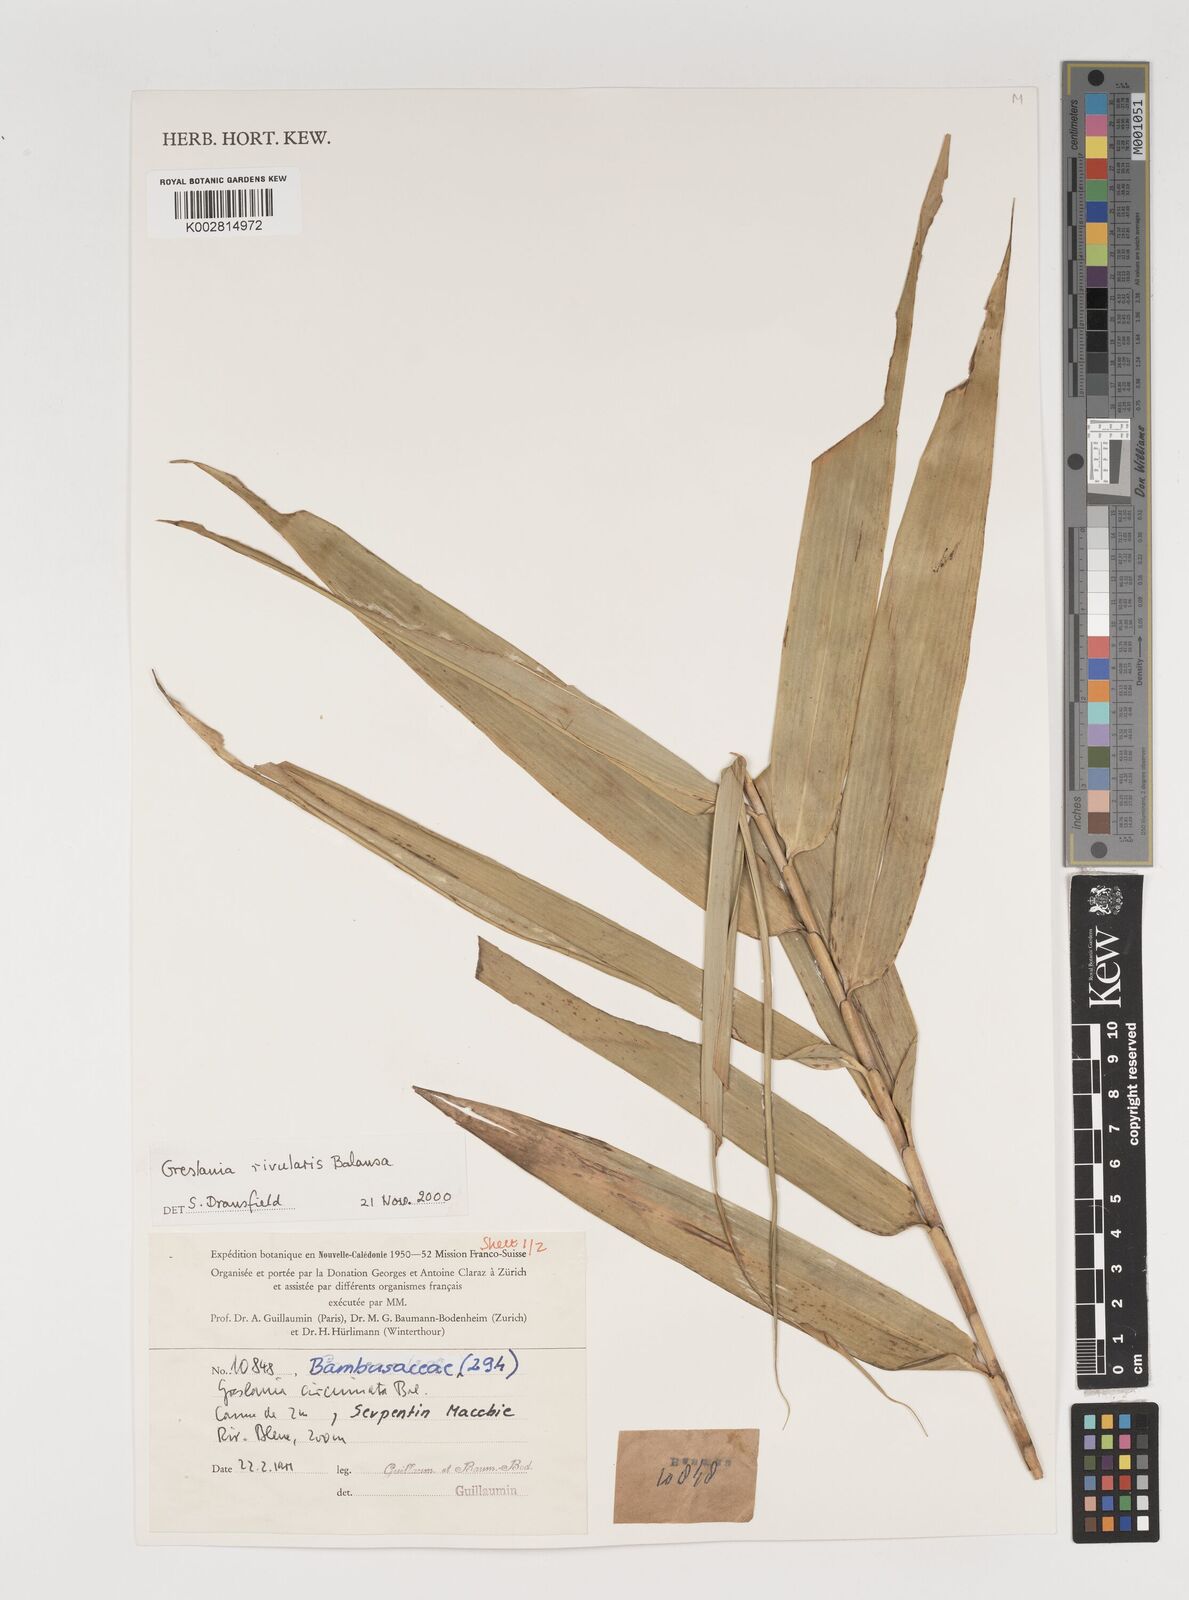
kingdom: Plantae
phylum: Tracheophyta
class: Liliopsida
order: Poales
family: Poaceae
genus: Greslania
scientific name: Greslania rivularis
